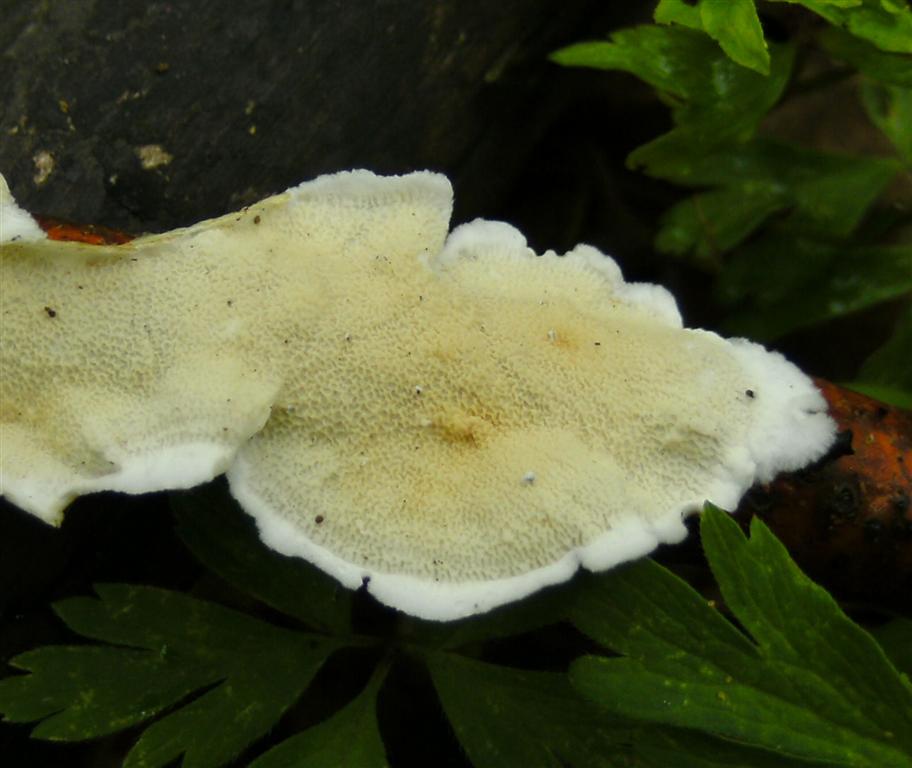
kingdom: Fungi
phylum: Basidiomycota
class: Agaricomycetes
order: Polyporales
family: Irpicaceae
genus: Byssomerulius
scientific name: Byssomerulius corium
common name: læder-åresvamp
